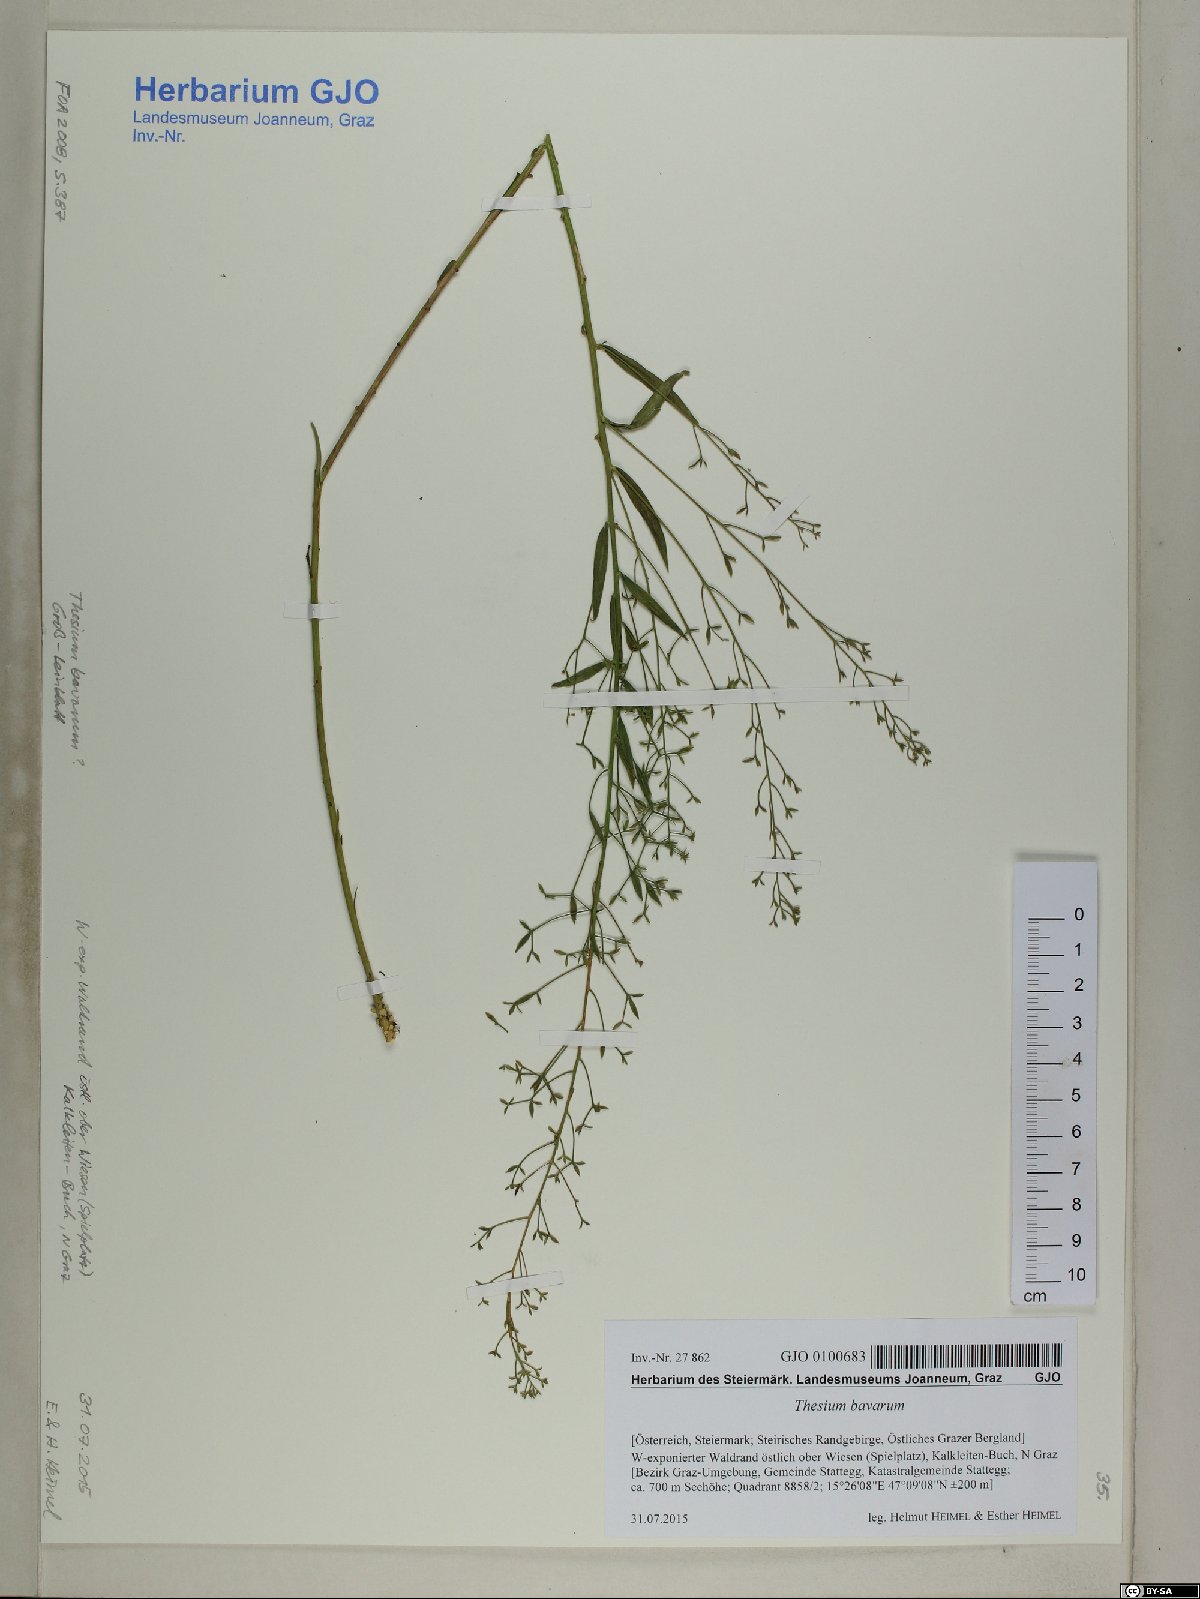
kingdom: Plantae
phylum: Tracheophyta
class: Magnoliopsida
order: Santalales
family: Thesiaceae
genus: Thesium
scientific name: Thesium bavarum
